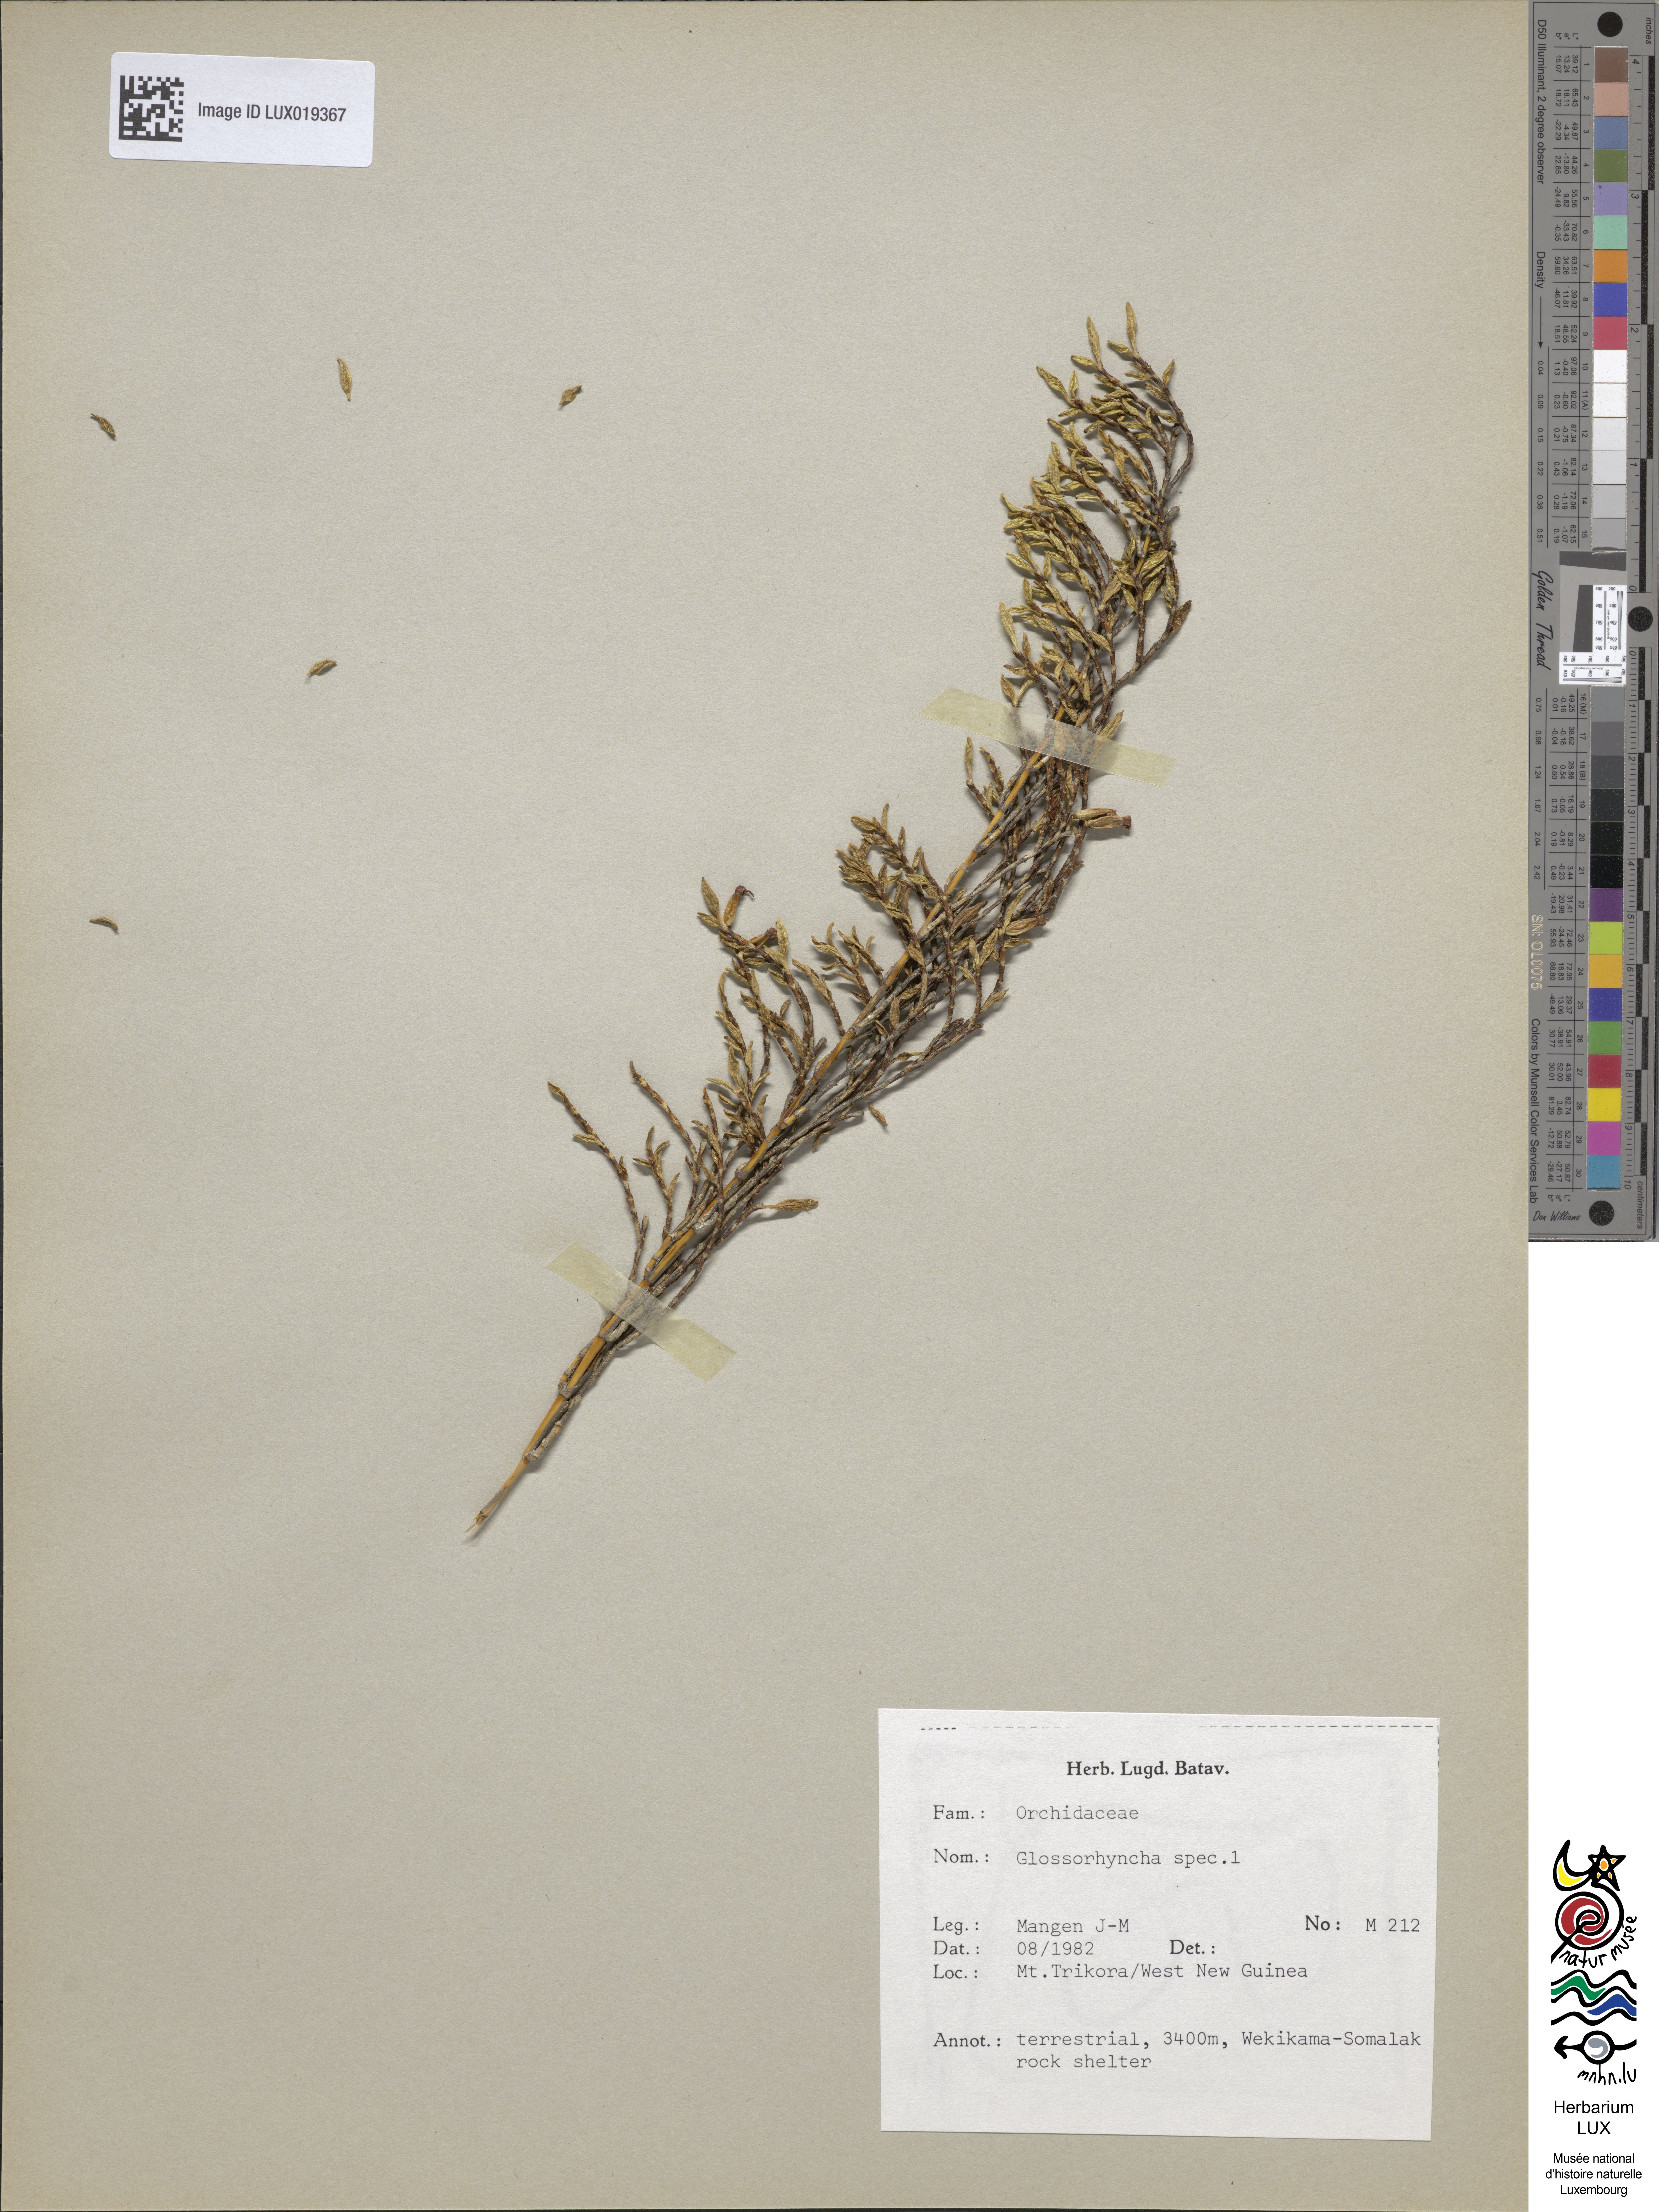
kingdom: Plantae
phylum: Tracheophyta
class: Liliopsida
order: Asparagales
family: Orchidaceae
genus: Glomera
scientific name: Glomera
